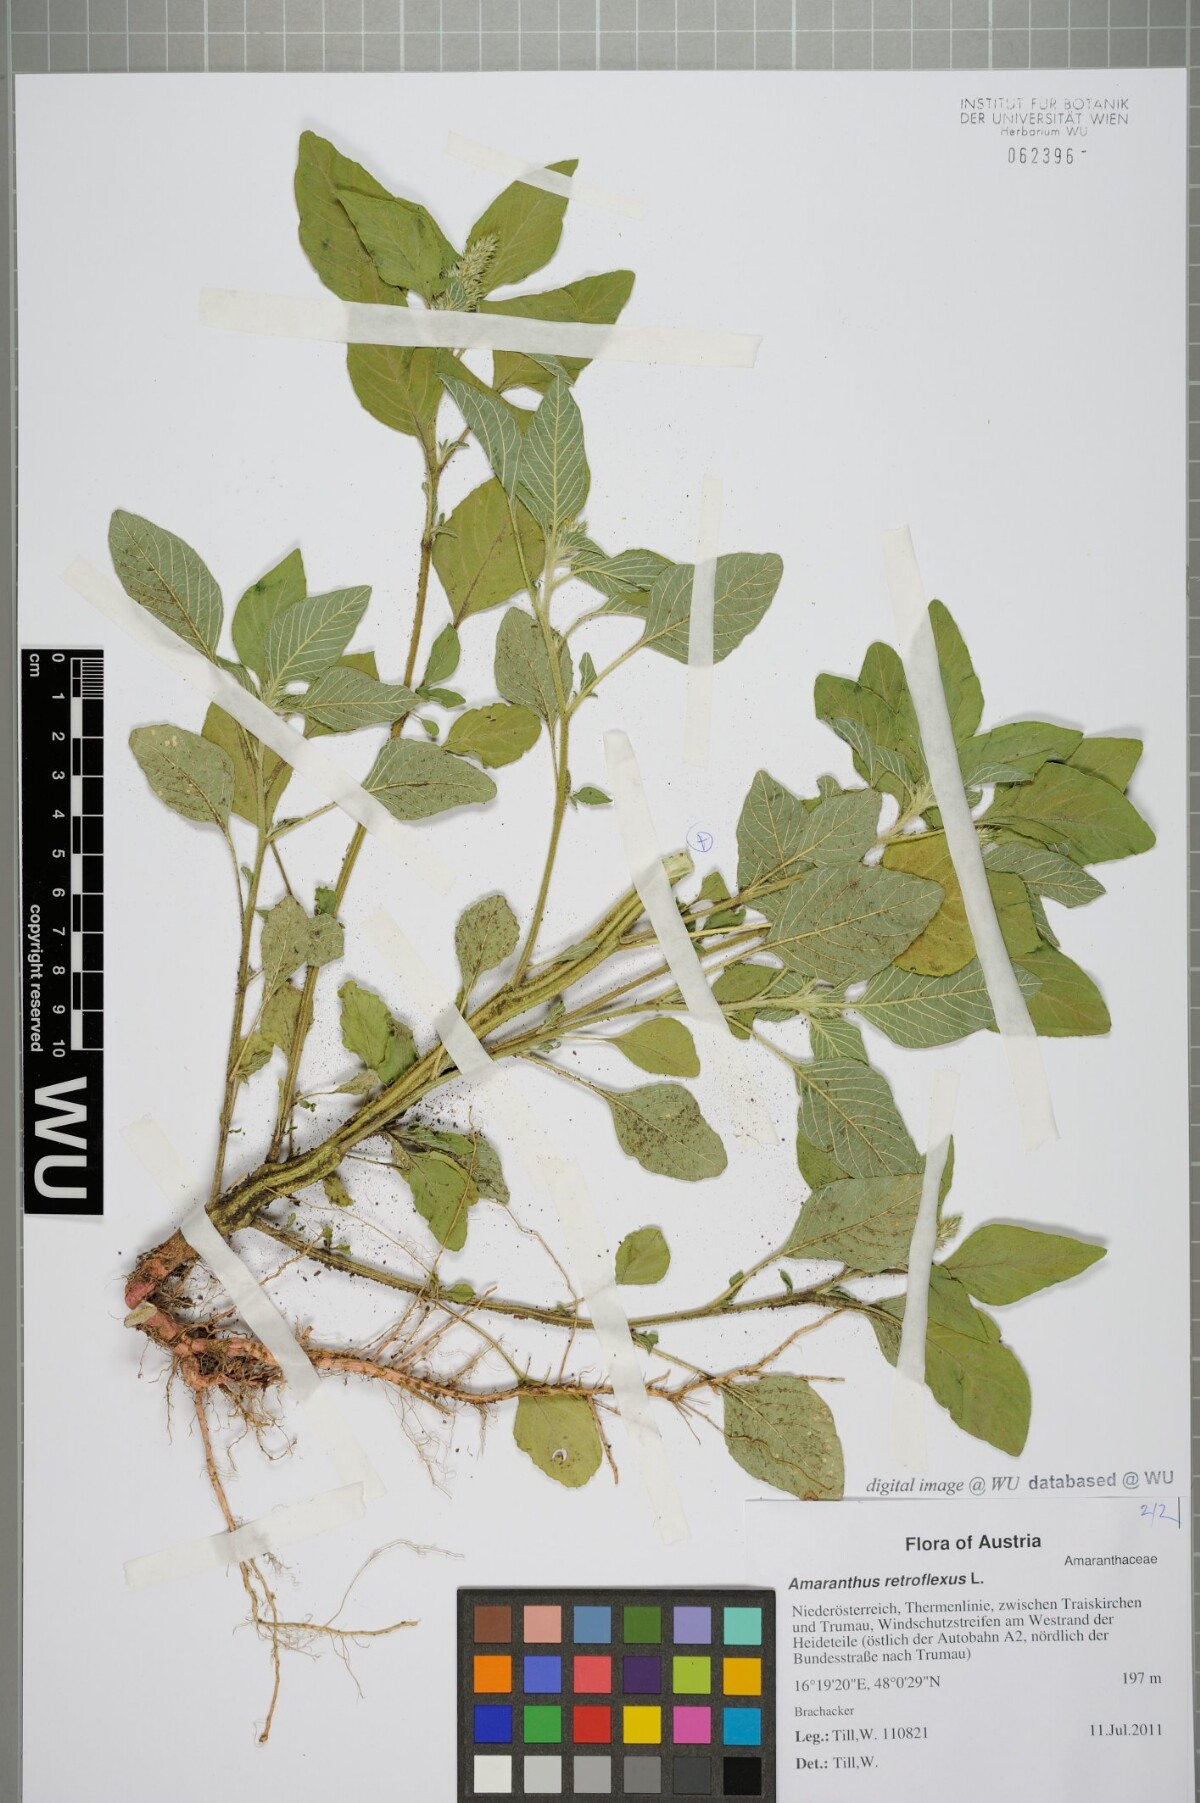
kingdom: Plantae
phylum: Tracheophyta
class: Magnoliopsida
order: Caryophyllales
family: Amaranthaceae
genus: Amaranthus
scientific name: Amaranthus retroflexus
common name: Redroot amaranth
